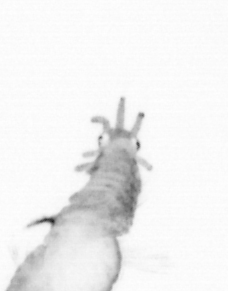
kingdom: Animalia
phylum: Annelida
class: Polychaeta
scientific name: Polychaeta
